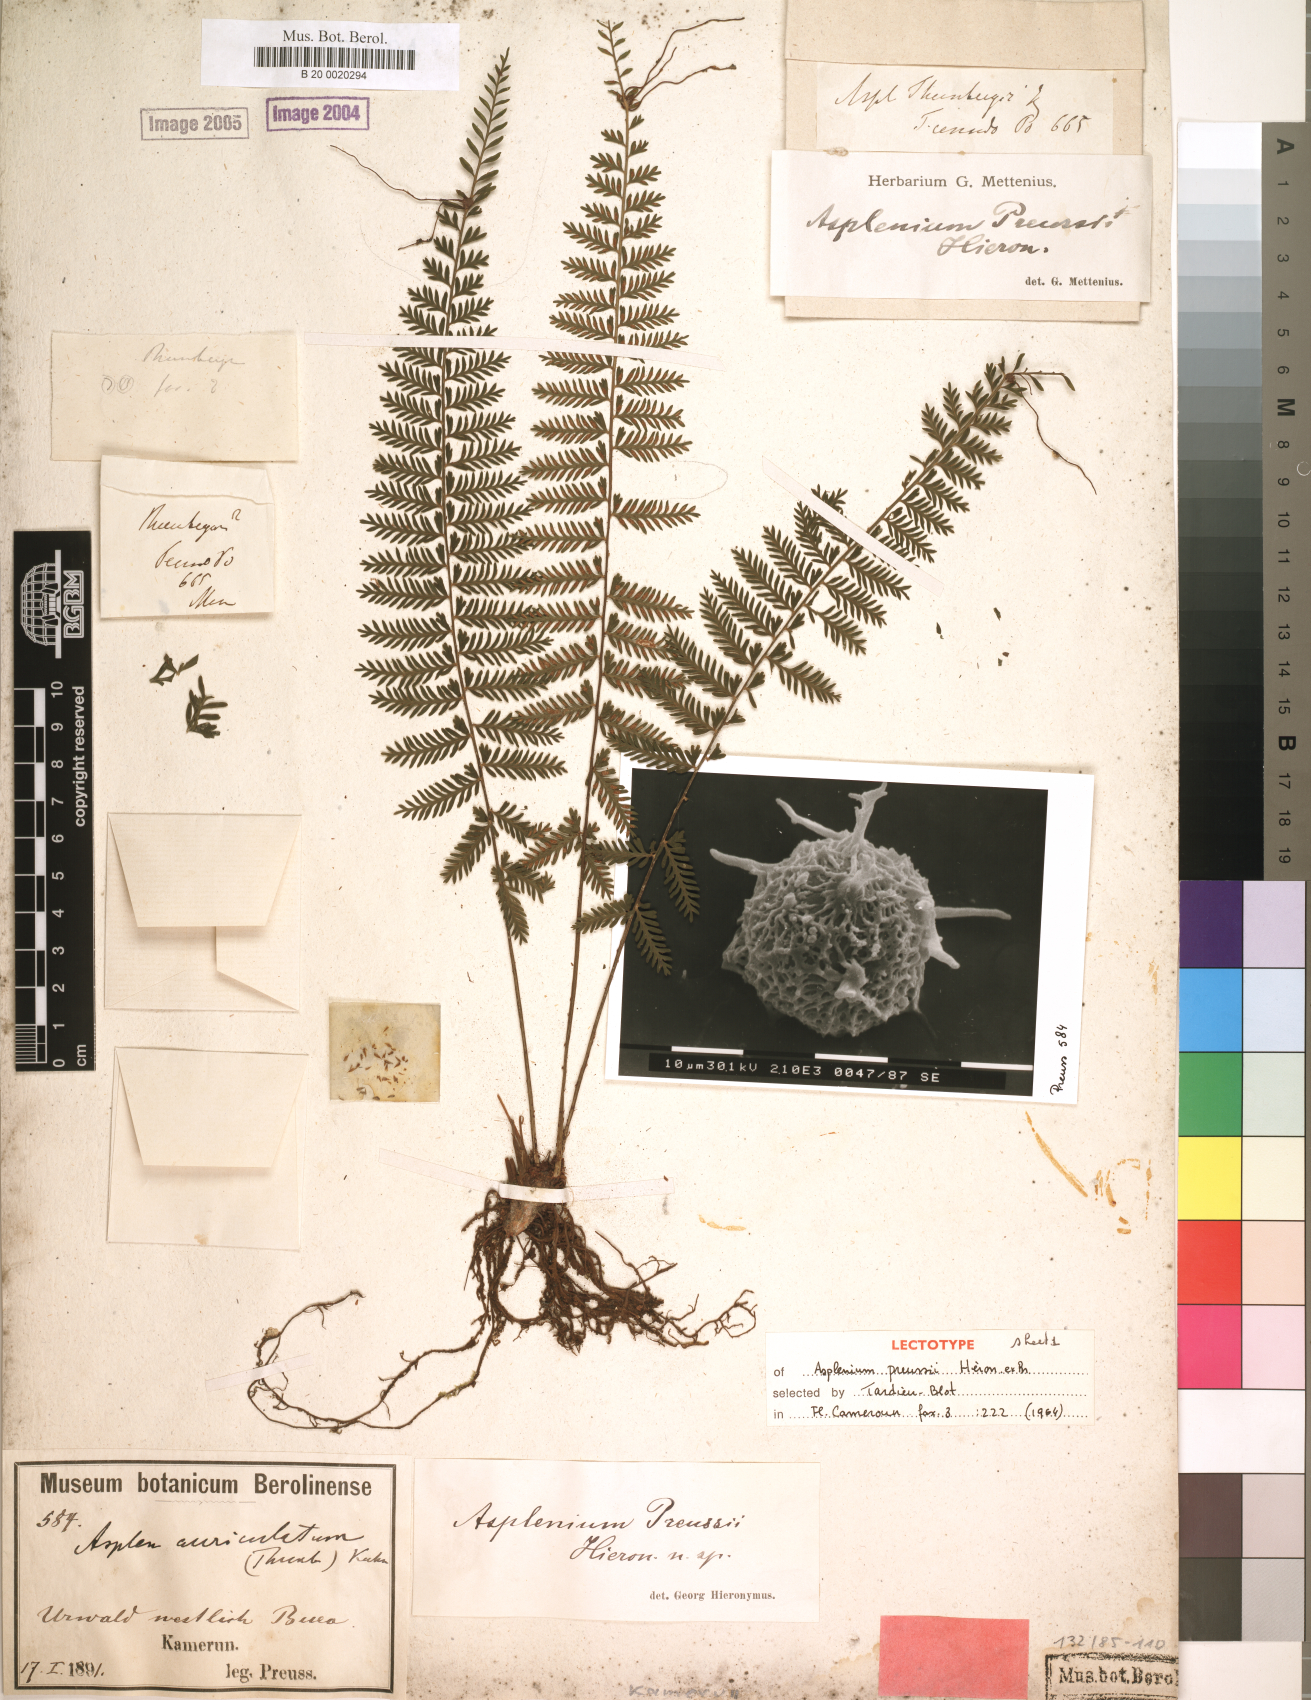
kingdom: Plantae
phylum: Tracheophyta
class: Polypodiopsida
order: Polypodiales
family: Aspleniaceae
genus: Asplenium
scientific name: Asplenium preussii
